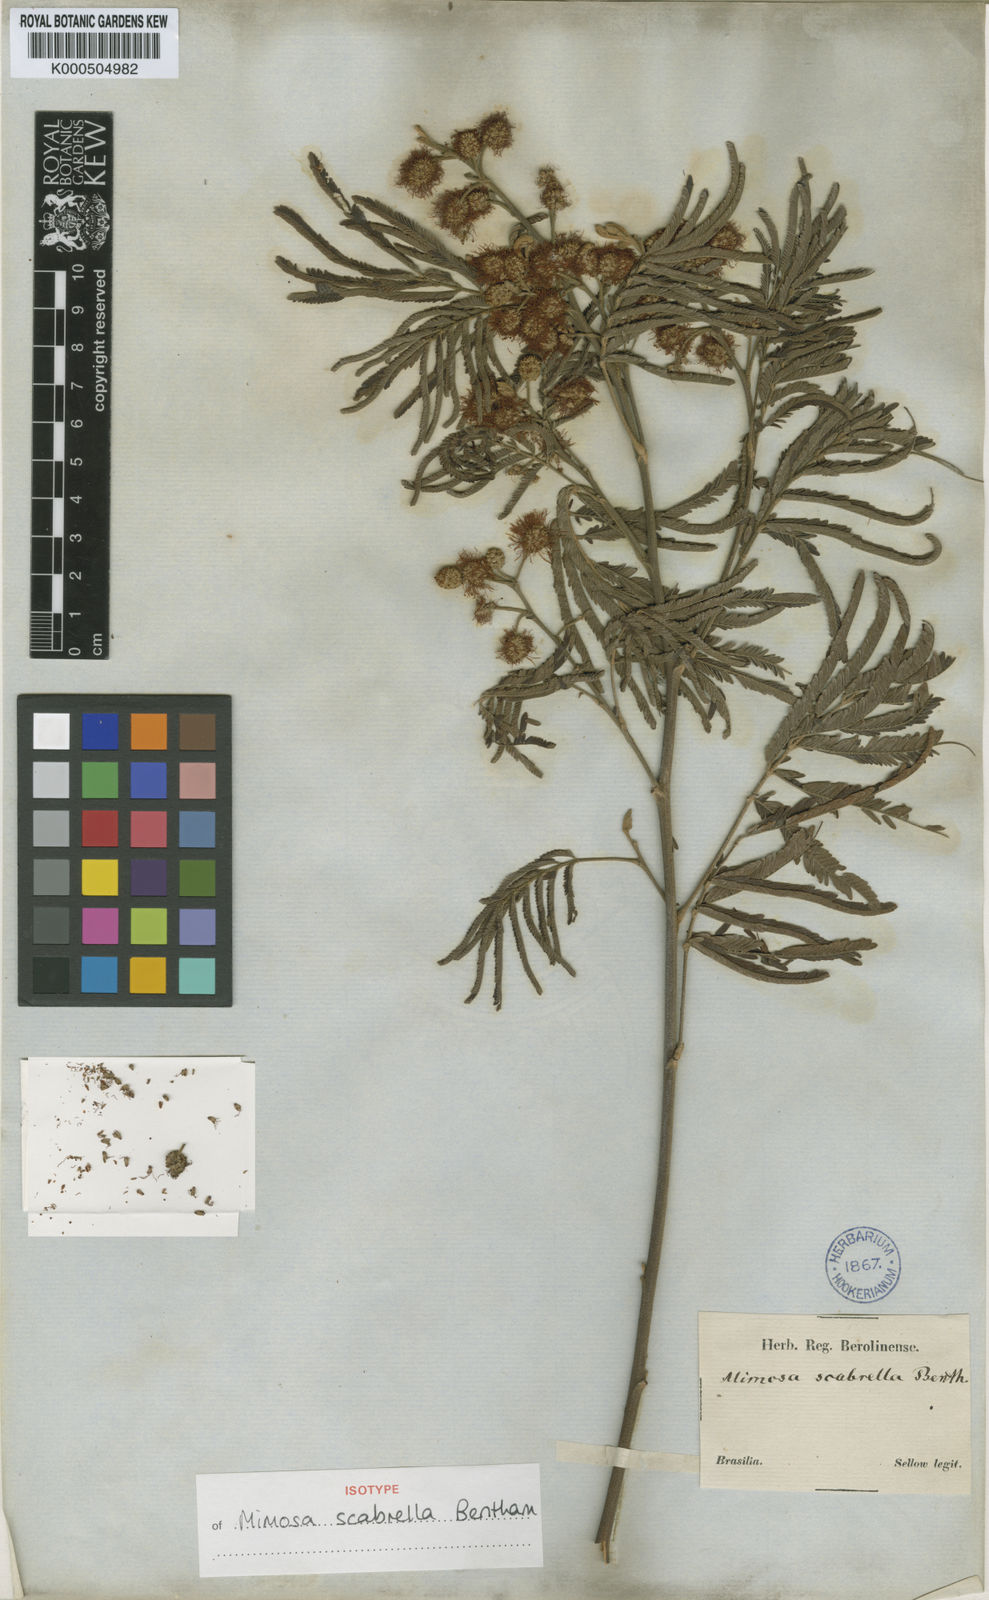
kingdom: Plantae
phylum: Tracheophyta
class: Magnoliopsida
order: Fabales
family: Fabaceae
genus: Mimosa
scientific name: Mimosa scabrella
